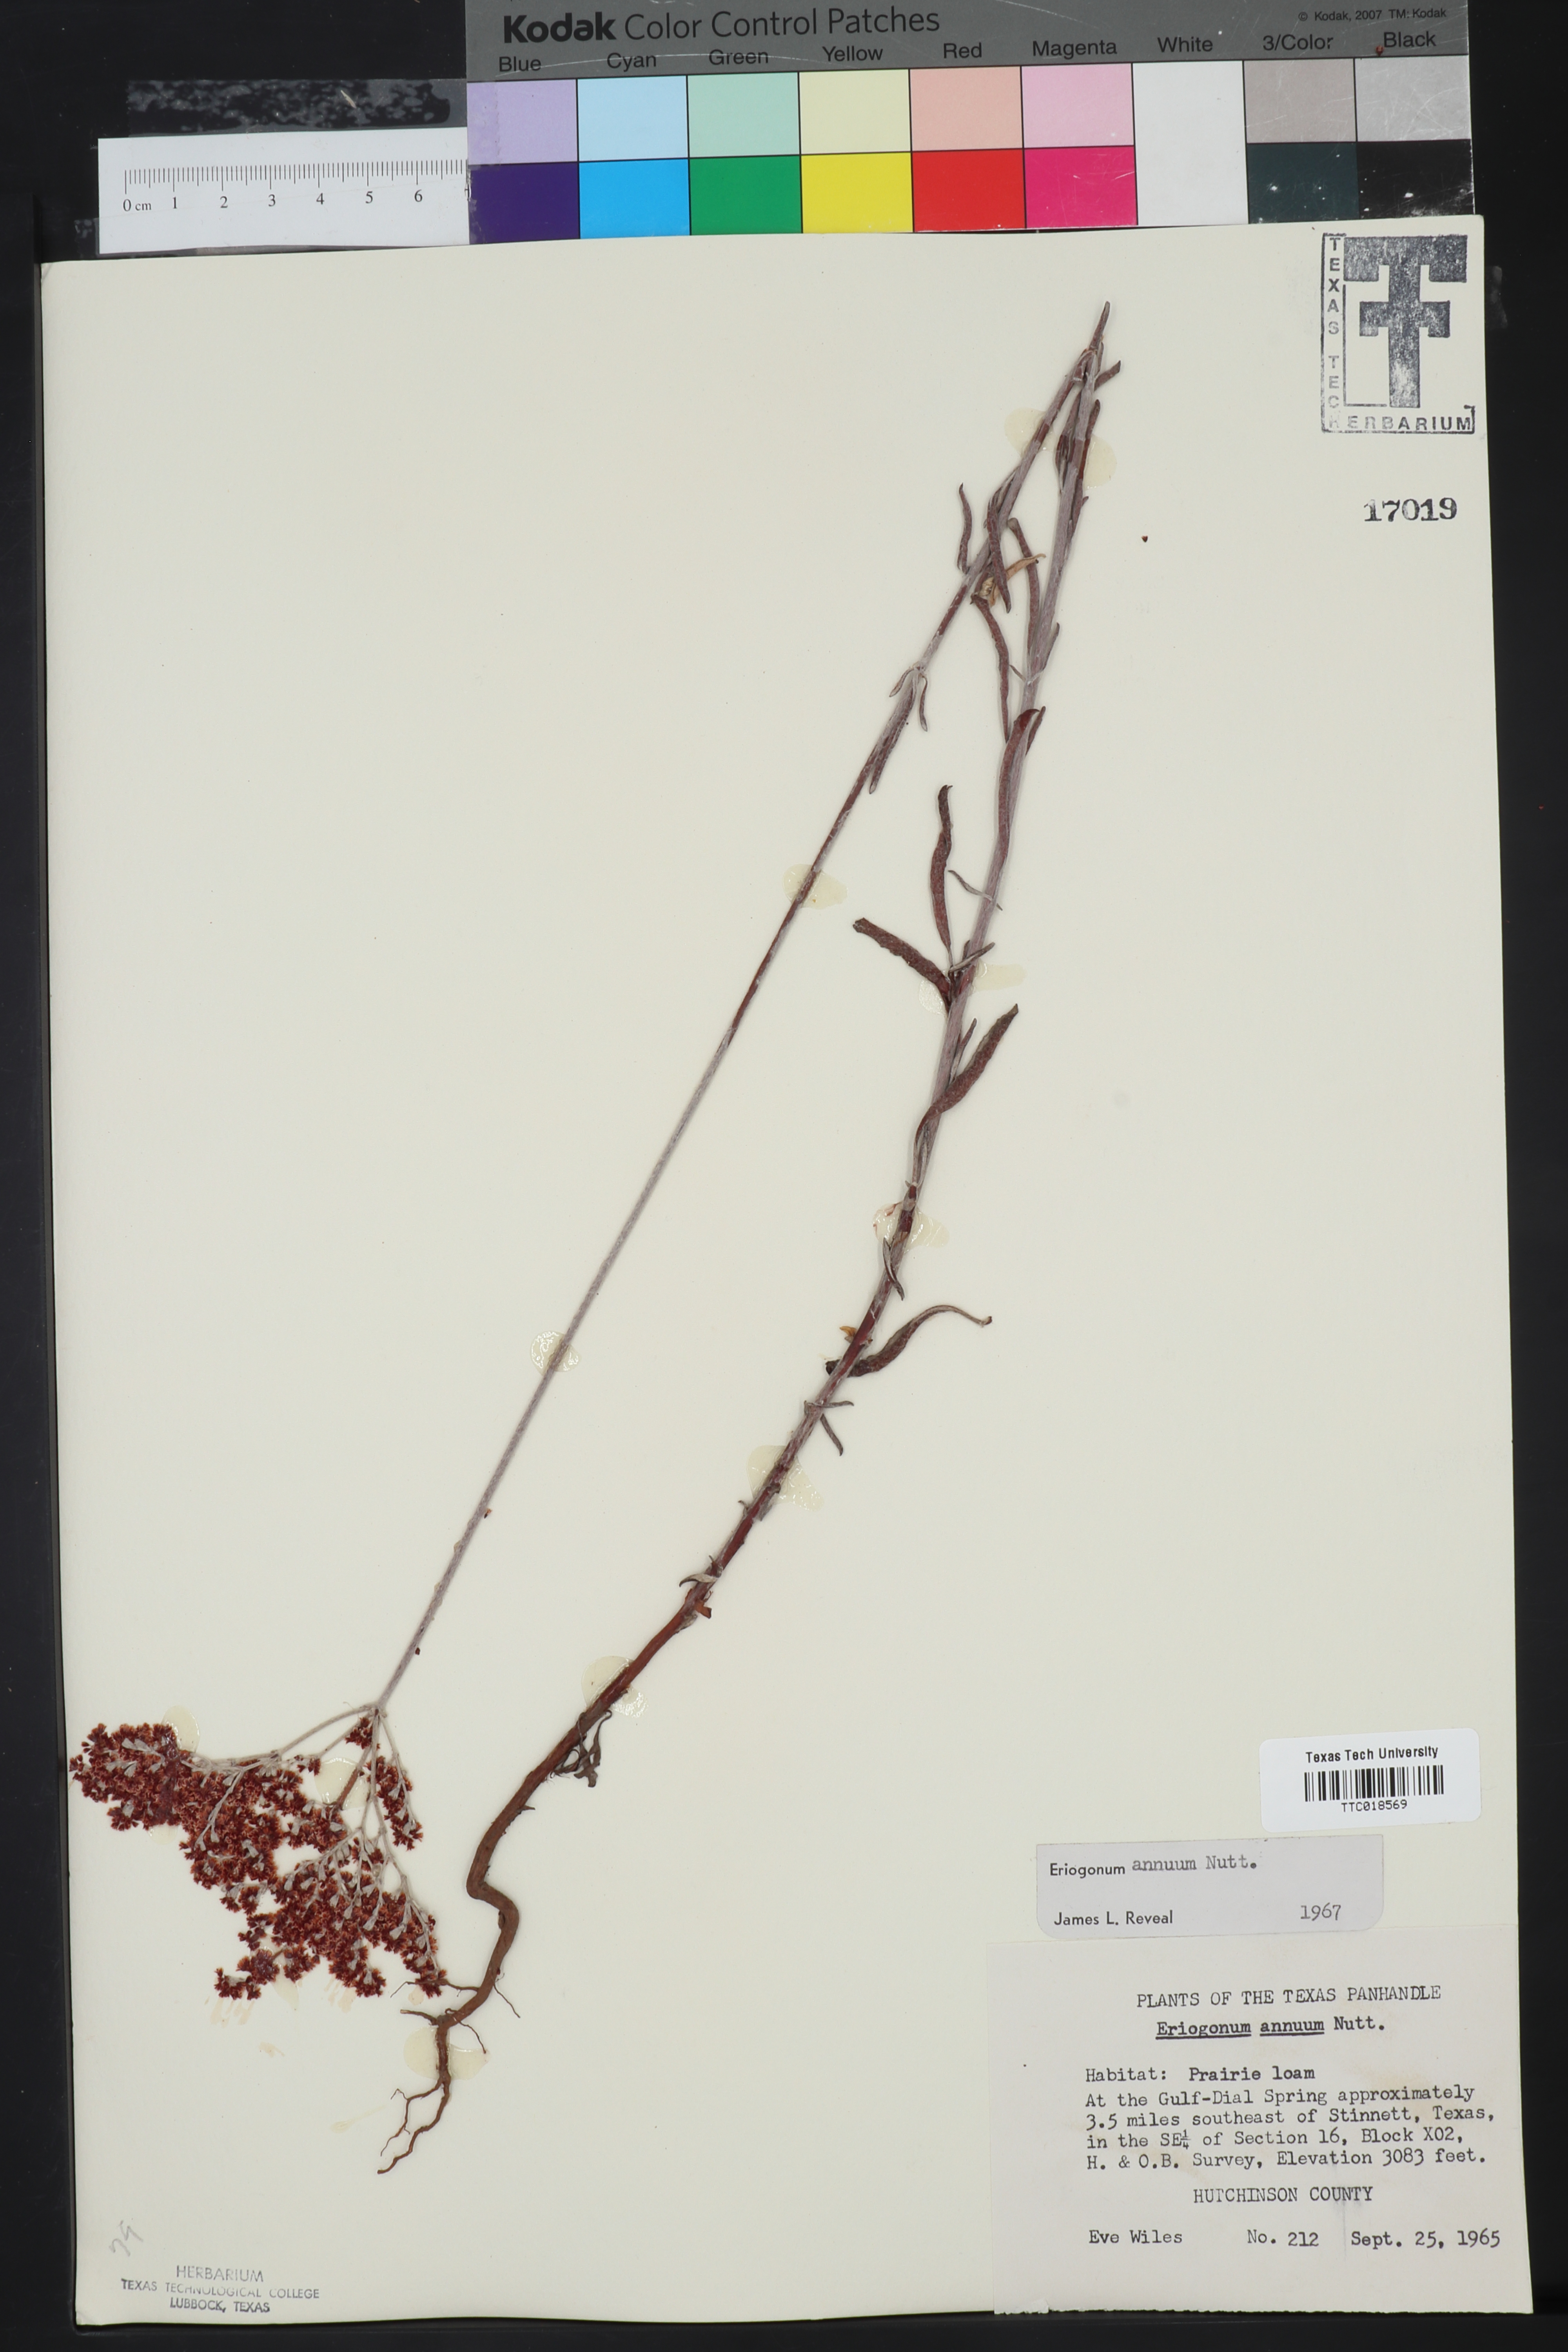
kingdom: Plantae
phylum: Tracheophyta
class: Magnoliopsida
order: Caryophyllales
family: Polygonaceae
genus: Eriogonum
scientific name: Eriogonum annuum
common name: Annual wild buckwheat
